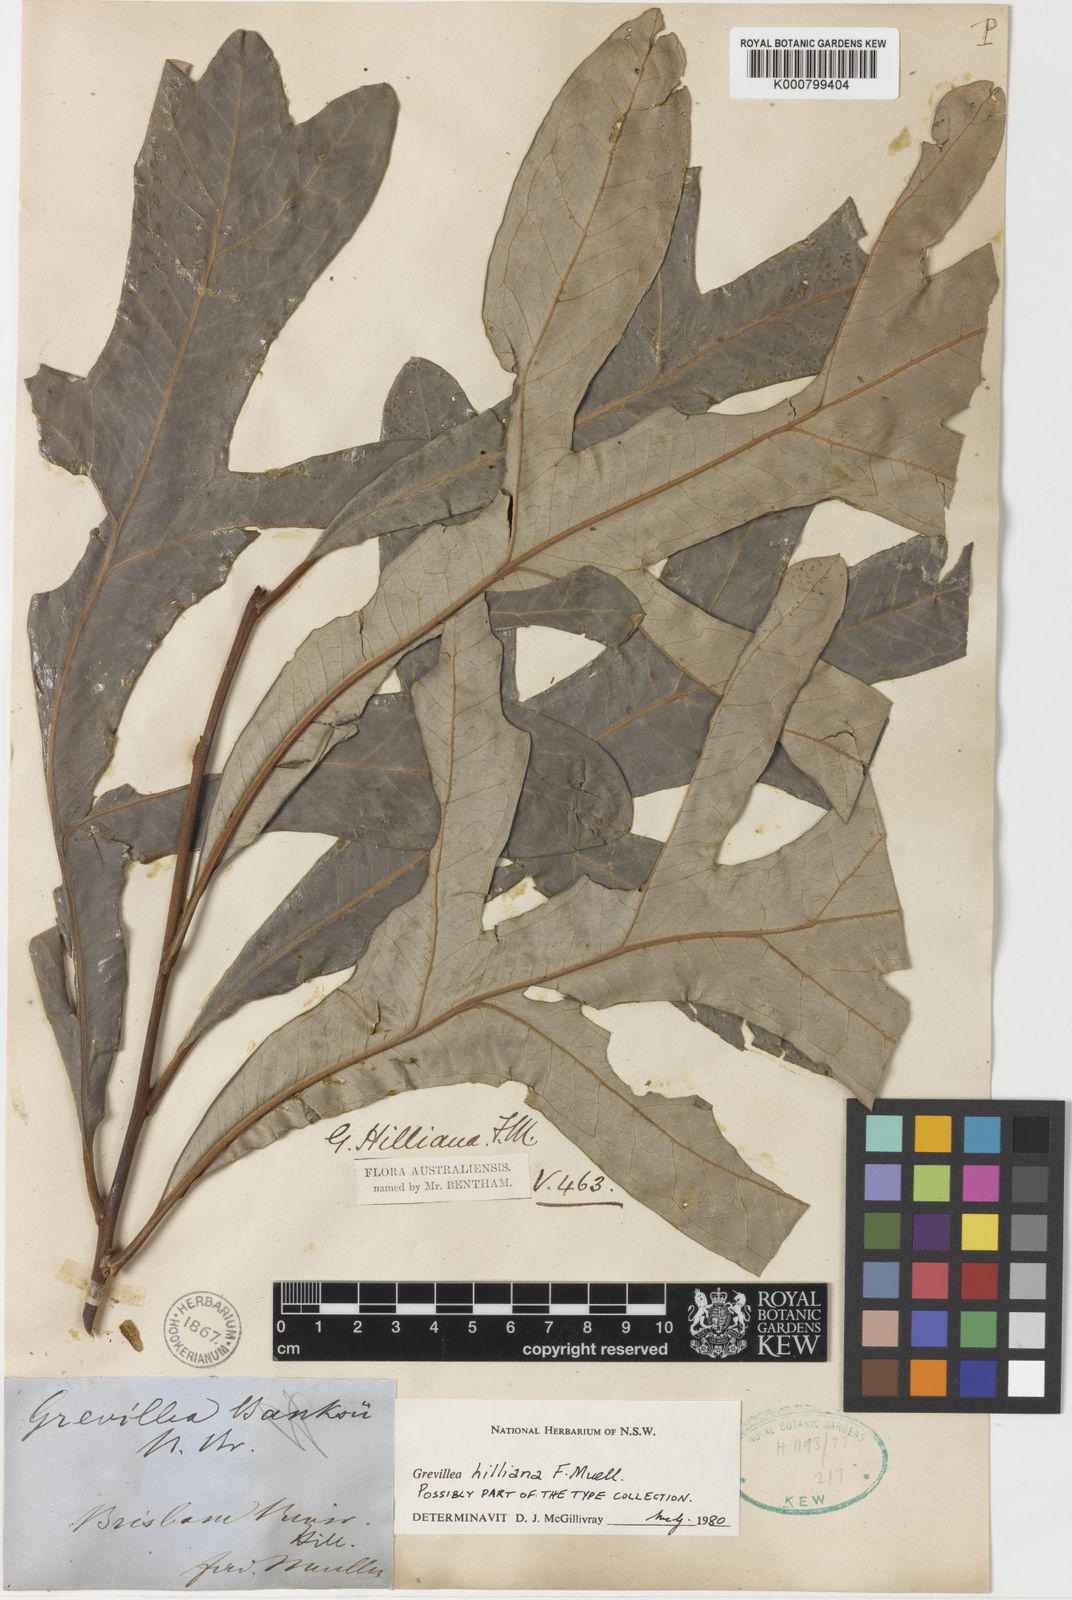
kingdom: Plantae
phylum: Tracheophyta
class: Magnoliopsida
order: Proteales
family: Proteaceae
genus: Grevillea
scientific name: Grevillea hilliana
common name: White silky-oak
